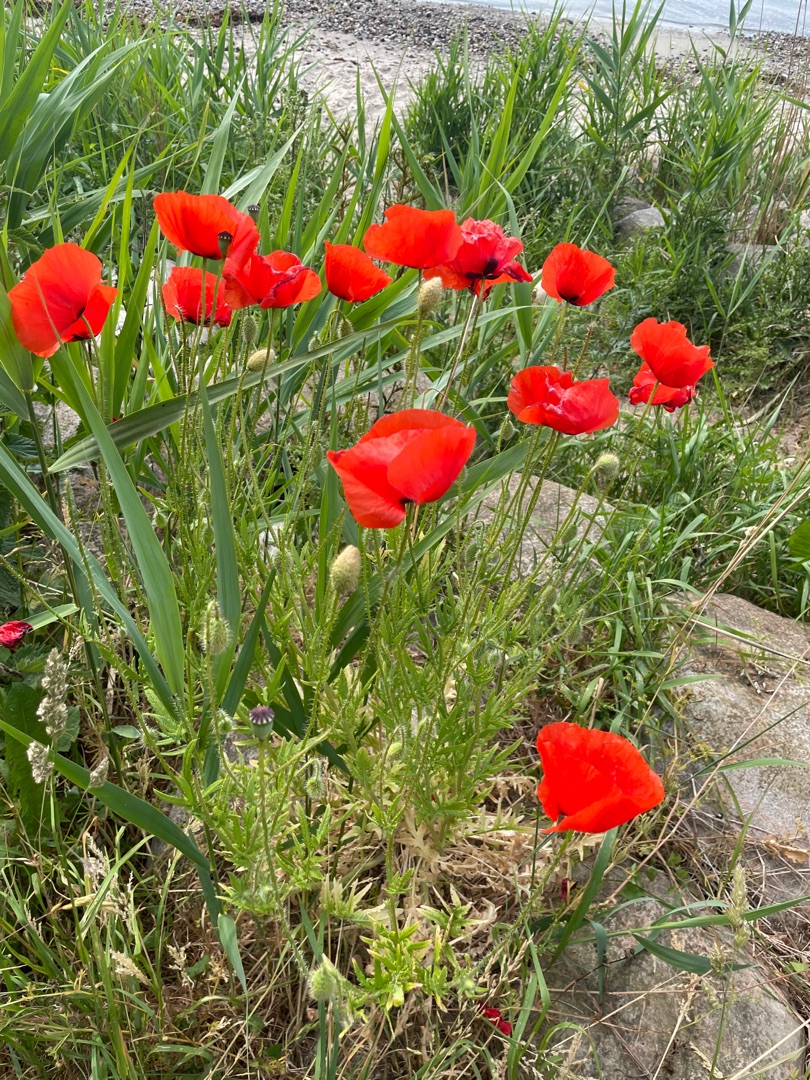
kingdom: Plantae
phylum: Tracheophyta
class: Magnoliopsida
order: Ranunculales
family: Papaveraceae
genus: Papaver
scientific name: Papaver rhoeas
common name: Korn-valmue
